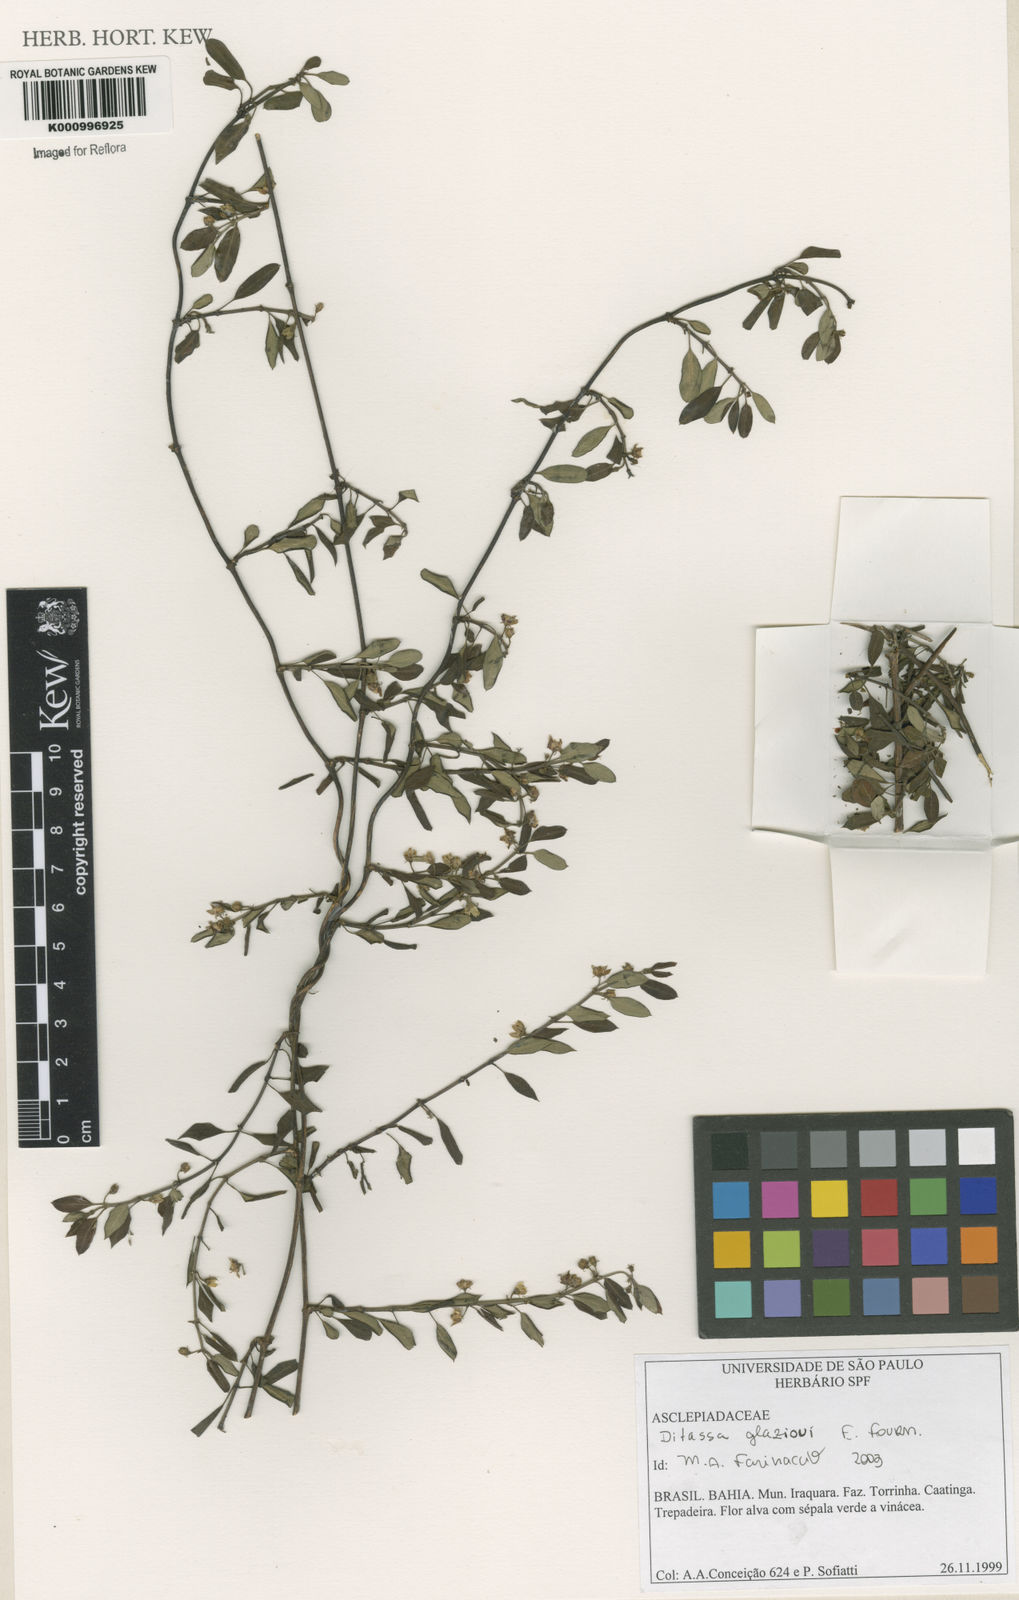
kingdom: Plantae
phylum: Tracheophyta
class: Magnoliopsida
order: Gentianales
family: Apocynaceae
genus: Ditassa
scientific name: Ditassa
